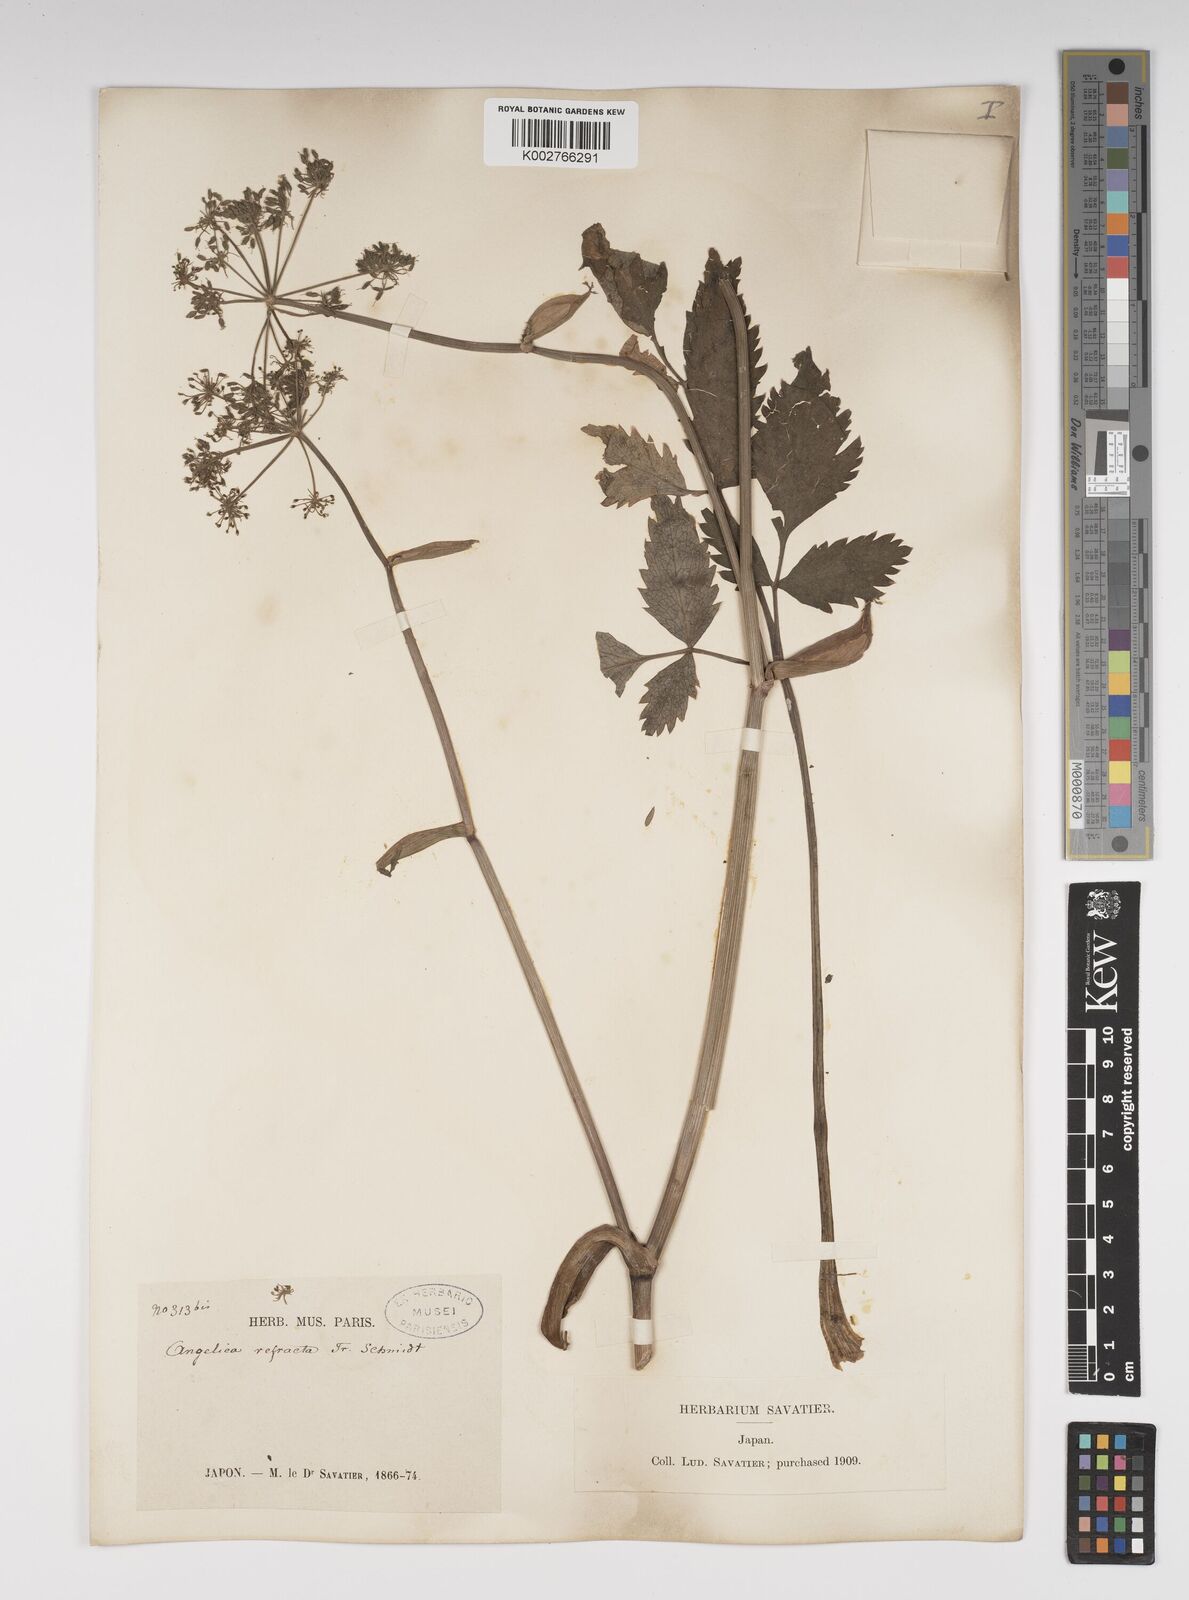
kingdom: Plantae
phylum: Tracheophyta
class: Magnoliopsida
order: Apiales
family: Apiaceae
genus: Angelica
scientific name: Angelica genuflexa
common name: Kneeling angelica
